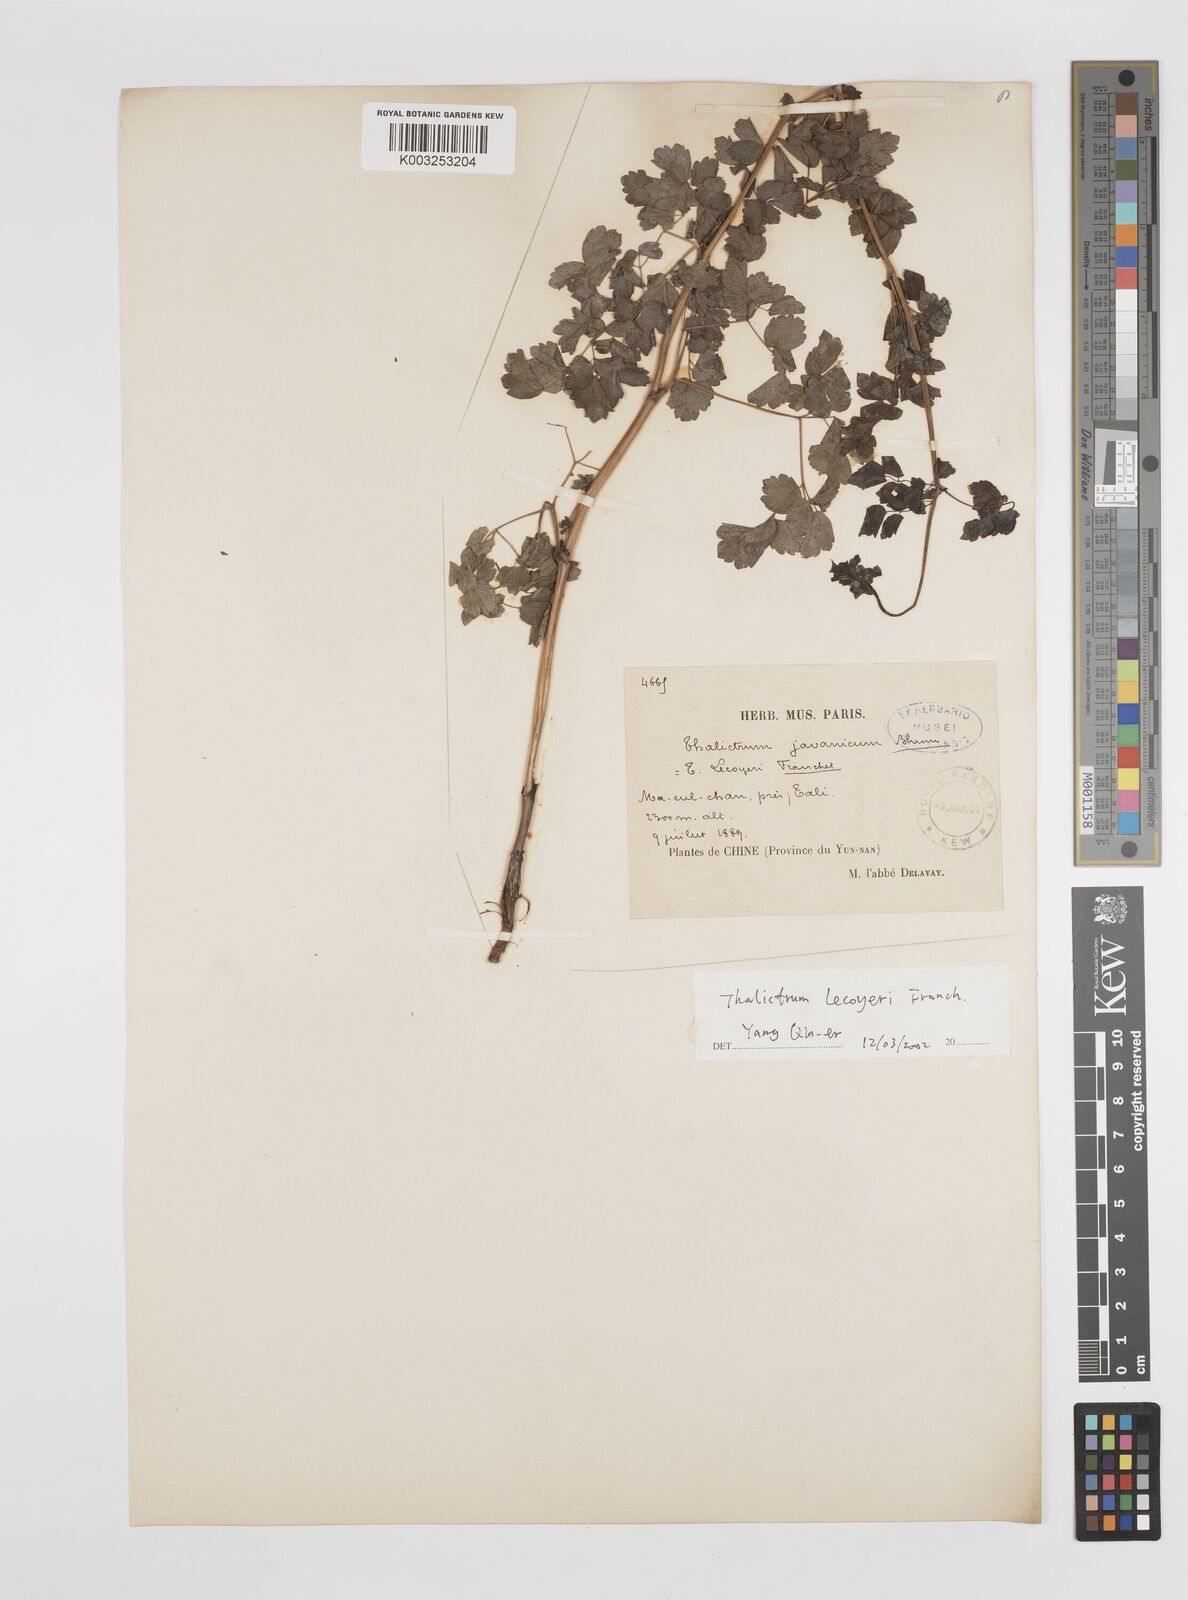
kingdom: Plantae
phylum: Tracheophyta
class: Magnoliopsida
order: Ranunculales
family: Ranunculaceae
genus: Thalictrum
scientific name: Thalictrum javanicum
